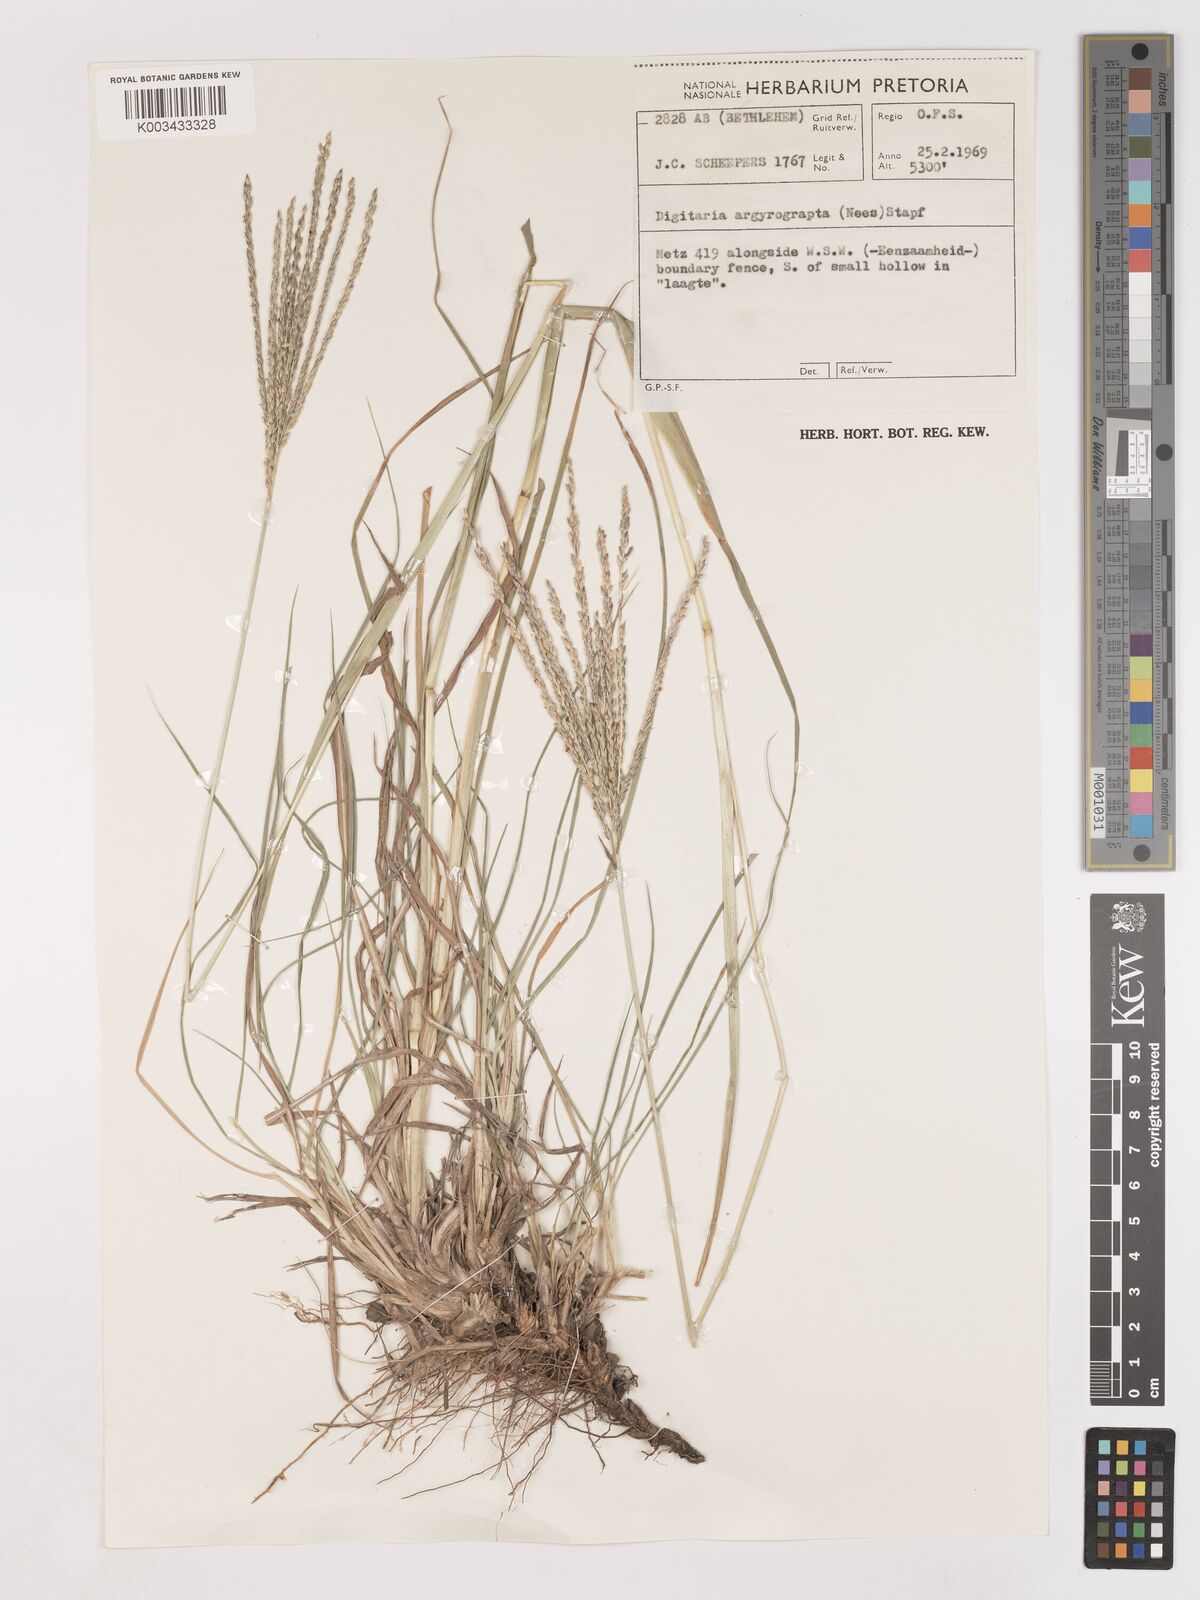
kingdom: Plantae
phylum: Tracheophyta
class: Liliopsida
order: Poales
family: Poaceae
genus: Digitaria
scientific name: Digitaria eriantha
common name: Digitgrass
